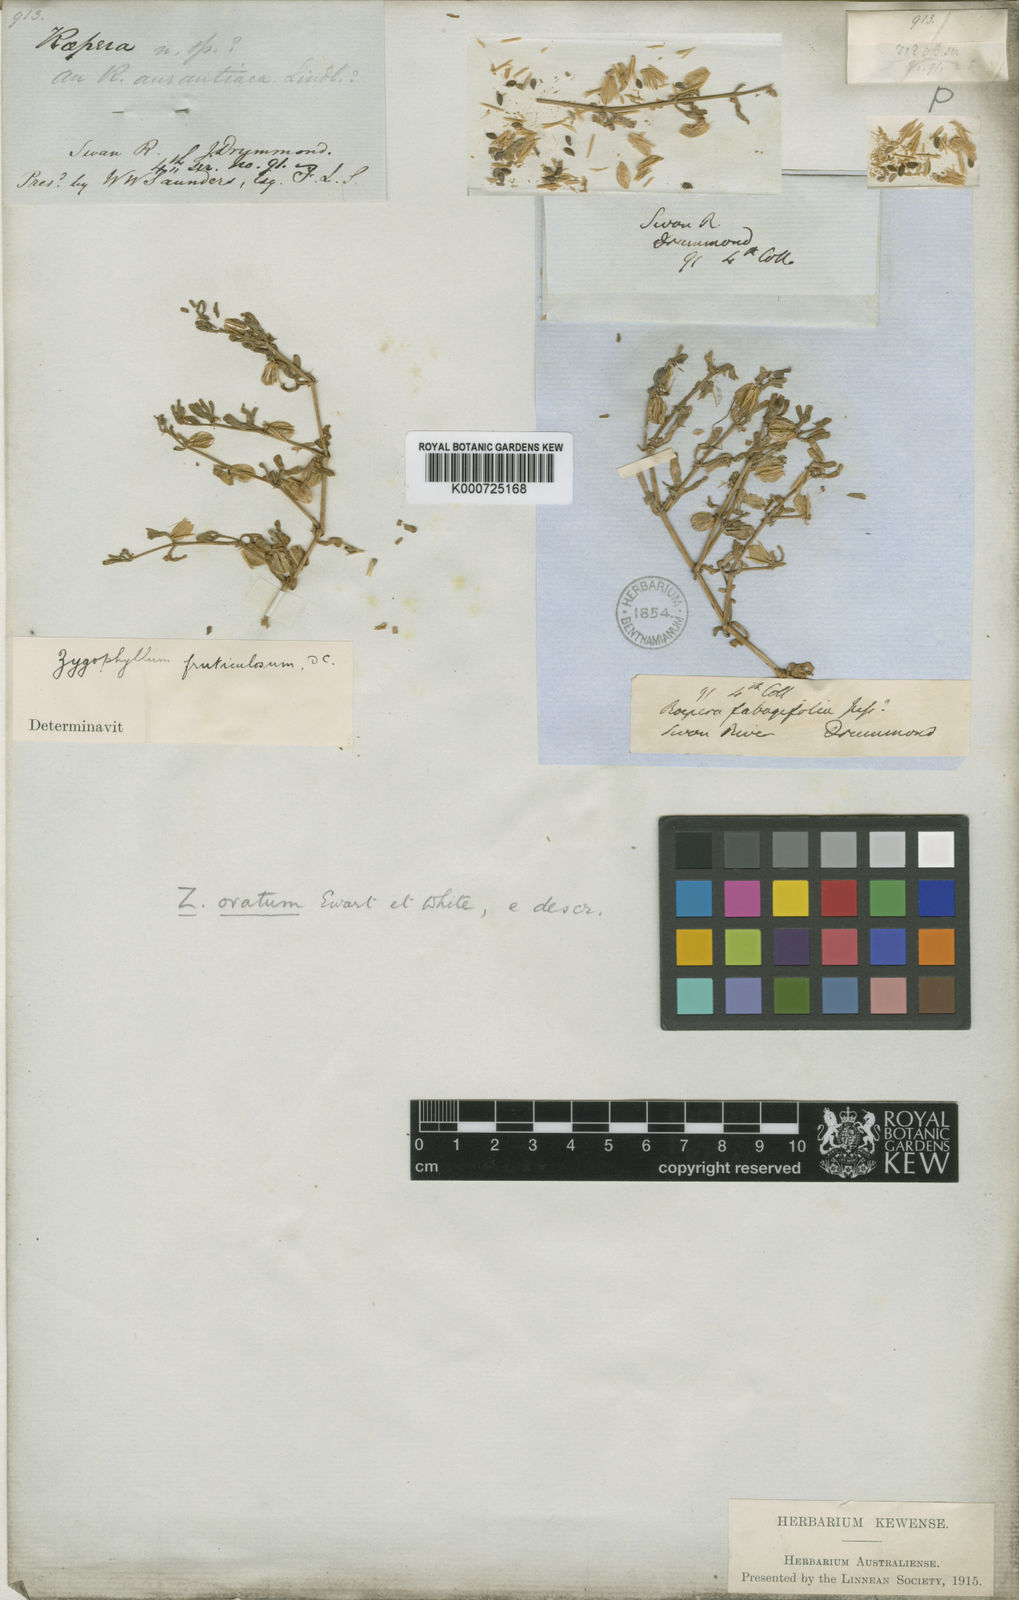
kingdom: Plantae
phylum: Tracheophyta
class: Magnoliopsida
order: Zygophyllales
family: Zygophyllaceae
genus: Roepera
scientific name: Roepera ovata
